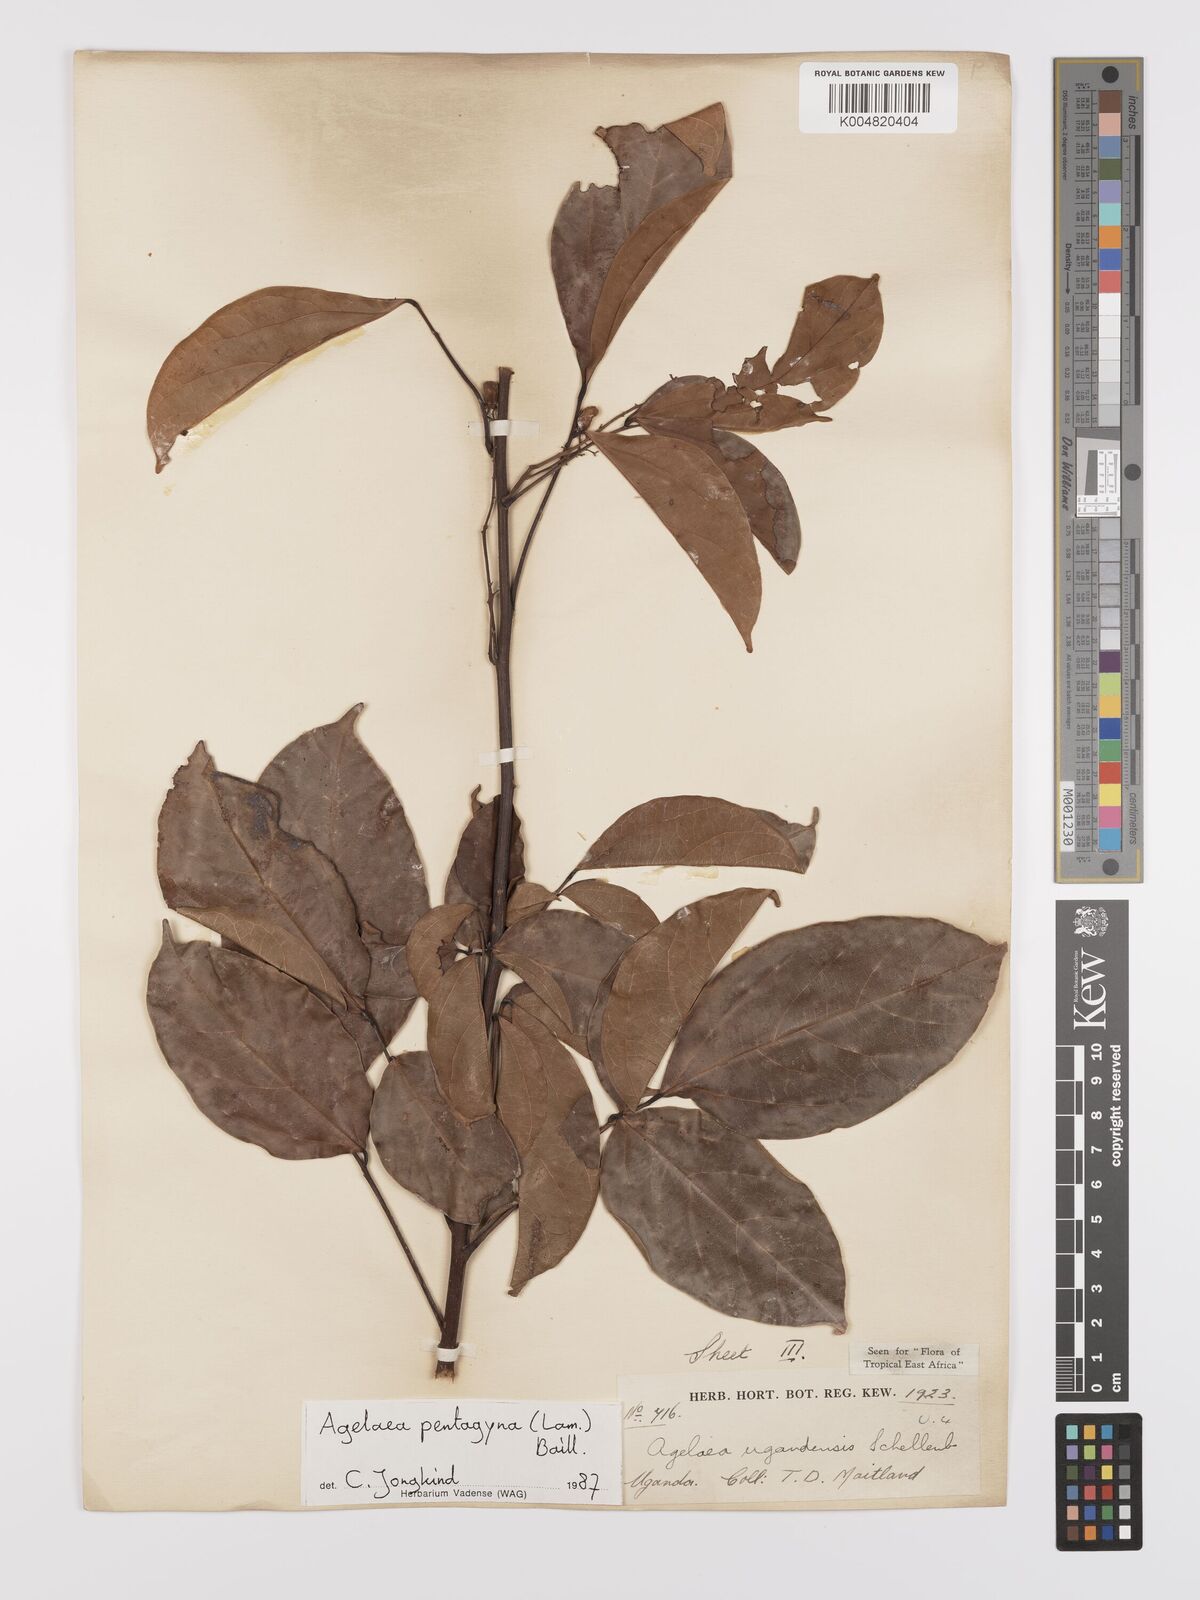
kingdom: Plantae
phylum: Tracheophyta
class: Magnoliopsida
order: Oxalidales
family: Connaraceae
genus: Agelaea
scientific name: Agelaea pentagyna
